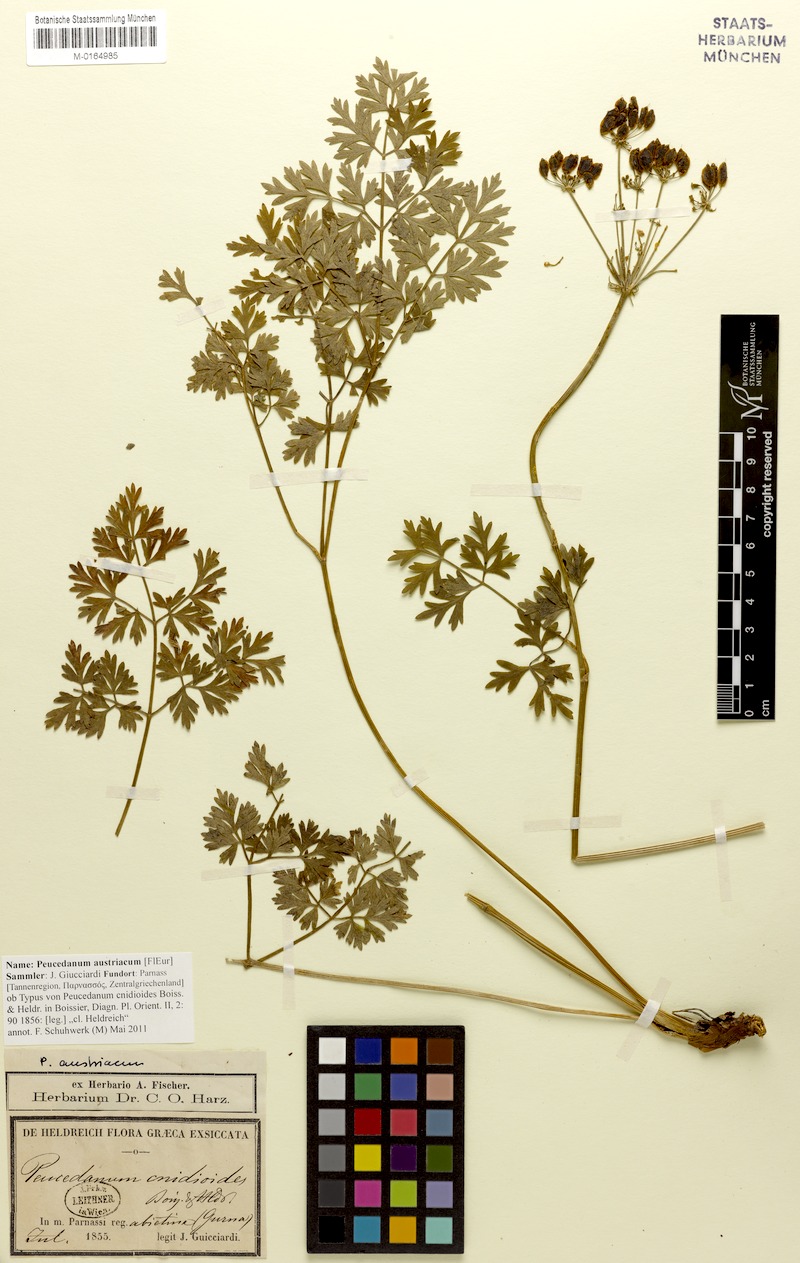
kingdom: Plantae
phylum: Tracheophyta
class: Magnoliopsida
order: Apiales
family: Apiaceae
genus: Peucedanum
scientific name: Peucedanum austriacum
